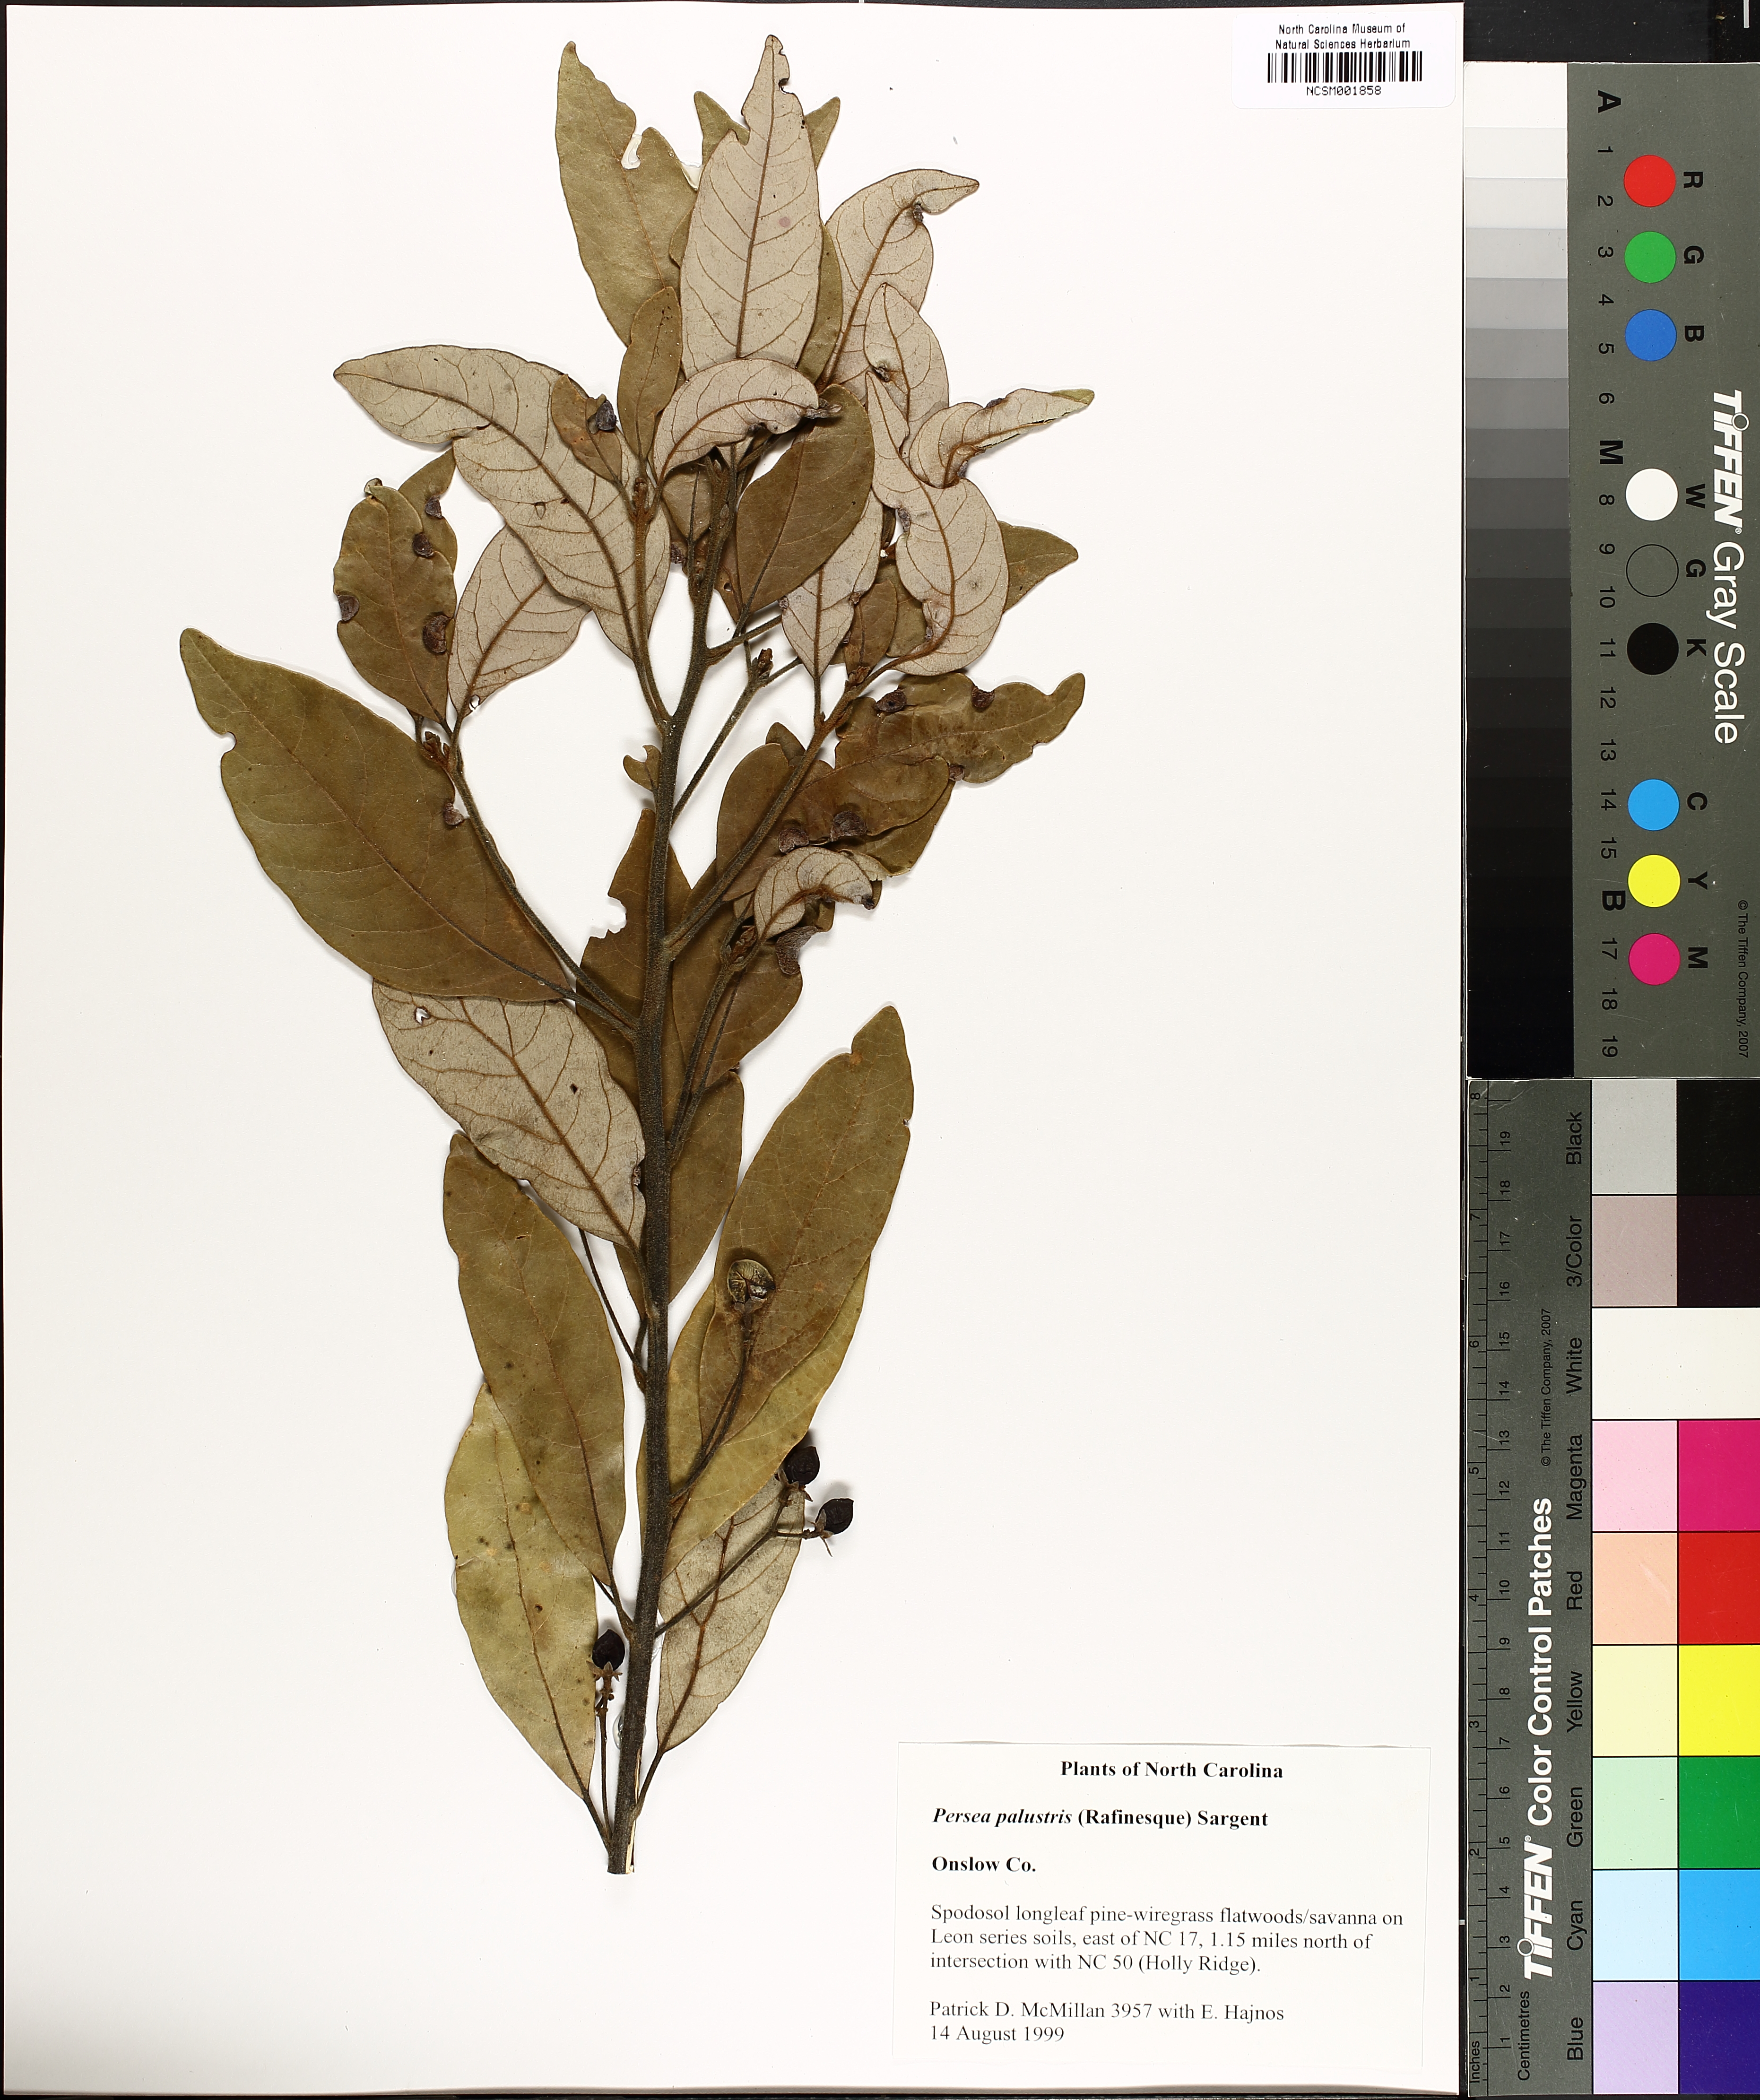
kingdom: Plantae
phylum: Tracheophyta
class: Magnoliopsida
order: Laurales
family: Lauraceae
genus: Persea
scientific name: Persea palustris
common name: Swampbay
